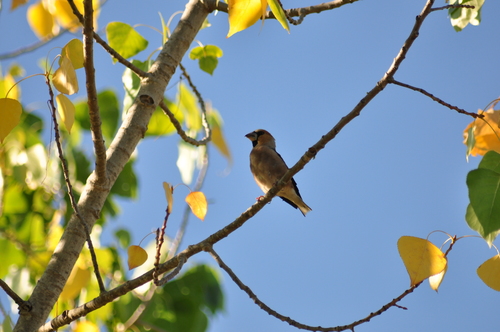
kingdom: Animalia
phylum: Chordata
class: Aves
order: Passeriformes
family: Fringillidae
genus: Coccothraustes
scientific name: Coccothraustes coccothraustes
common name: Hawfinch
